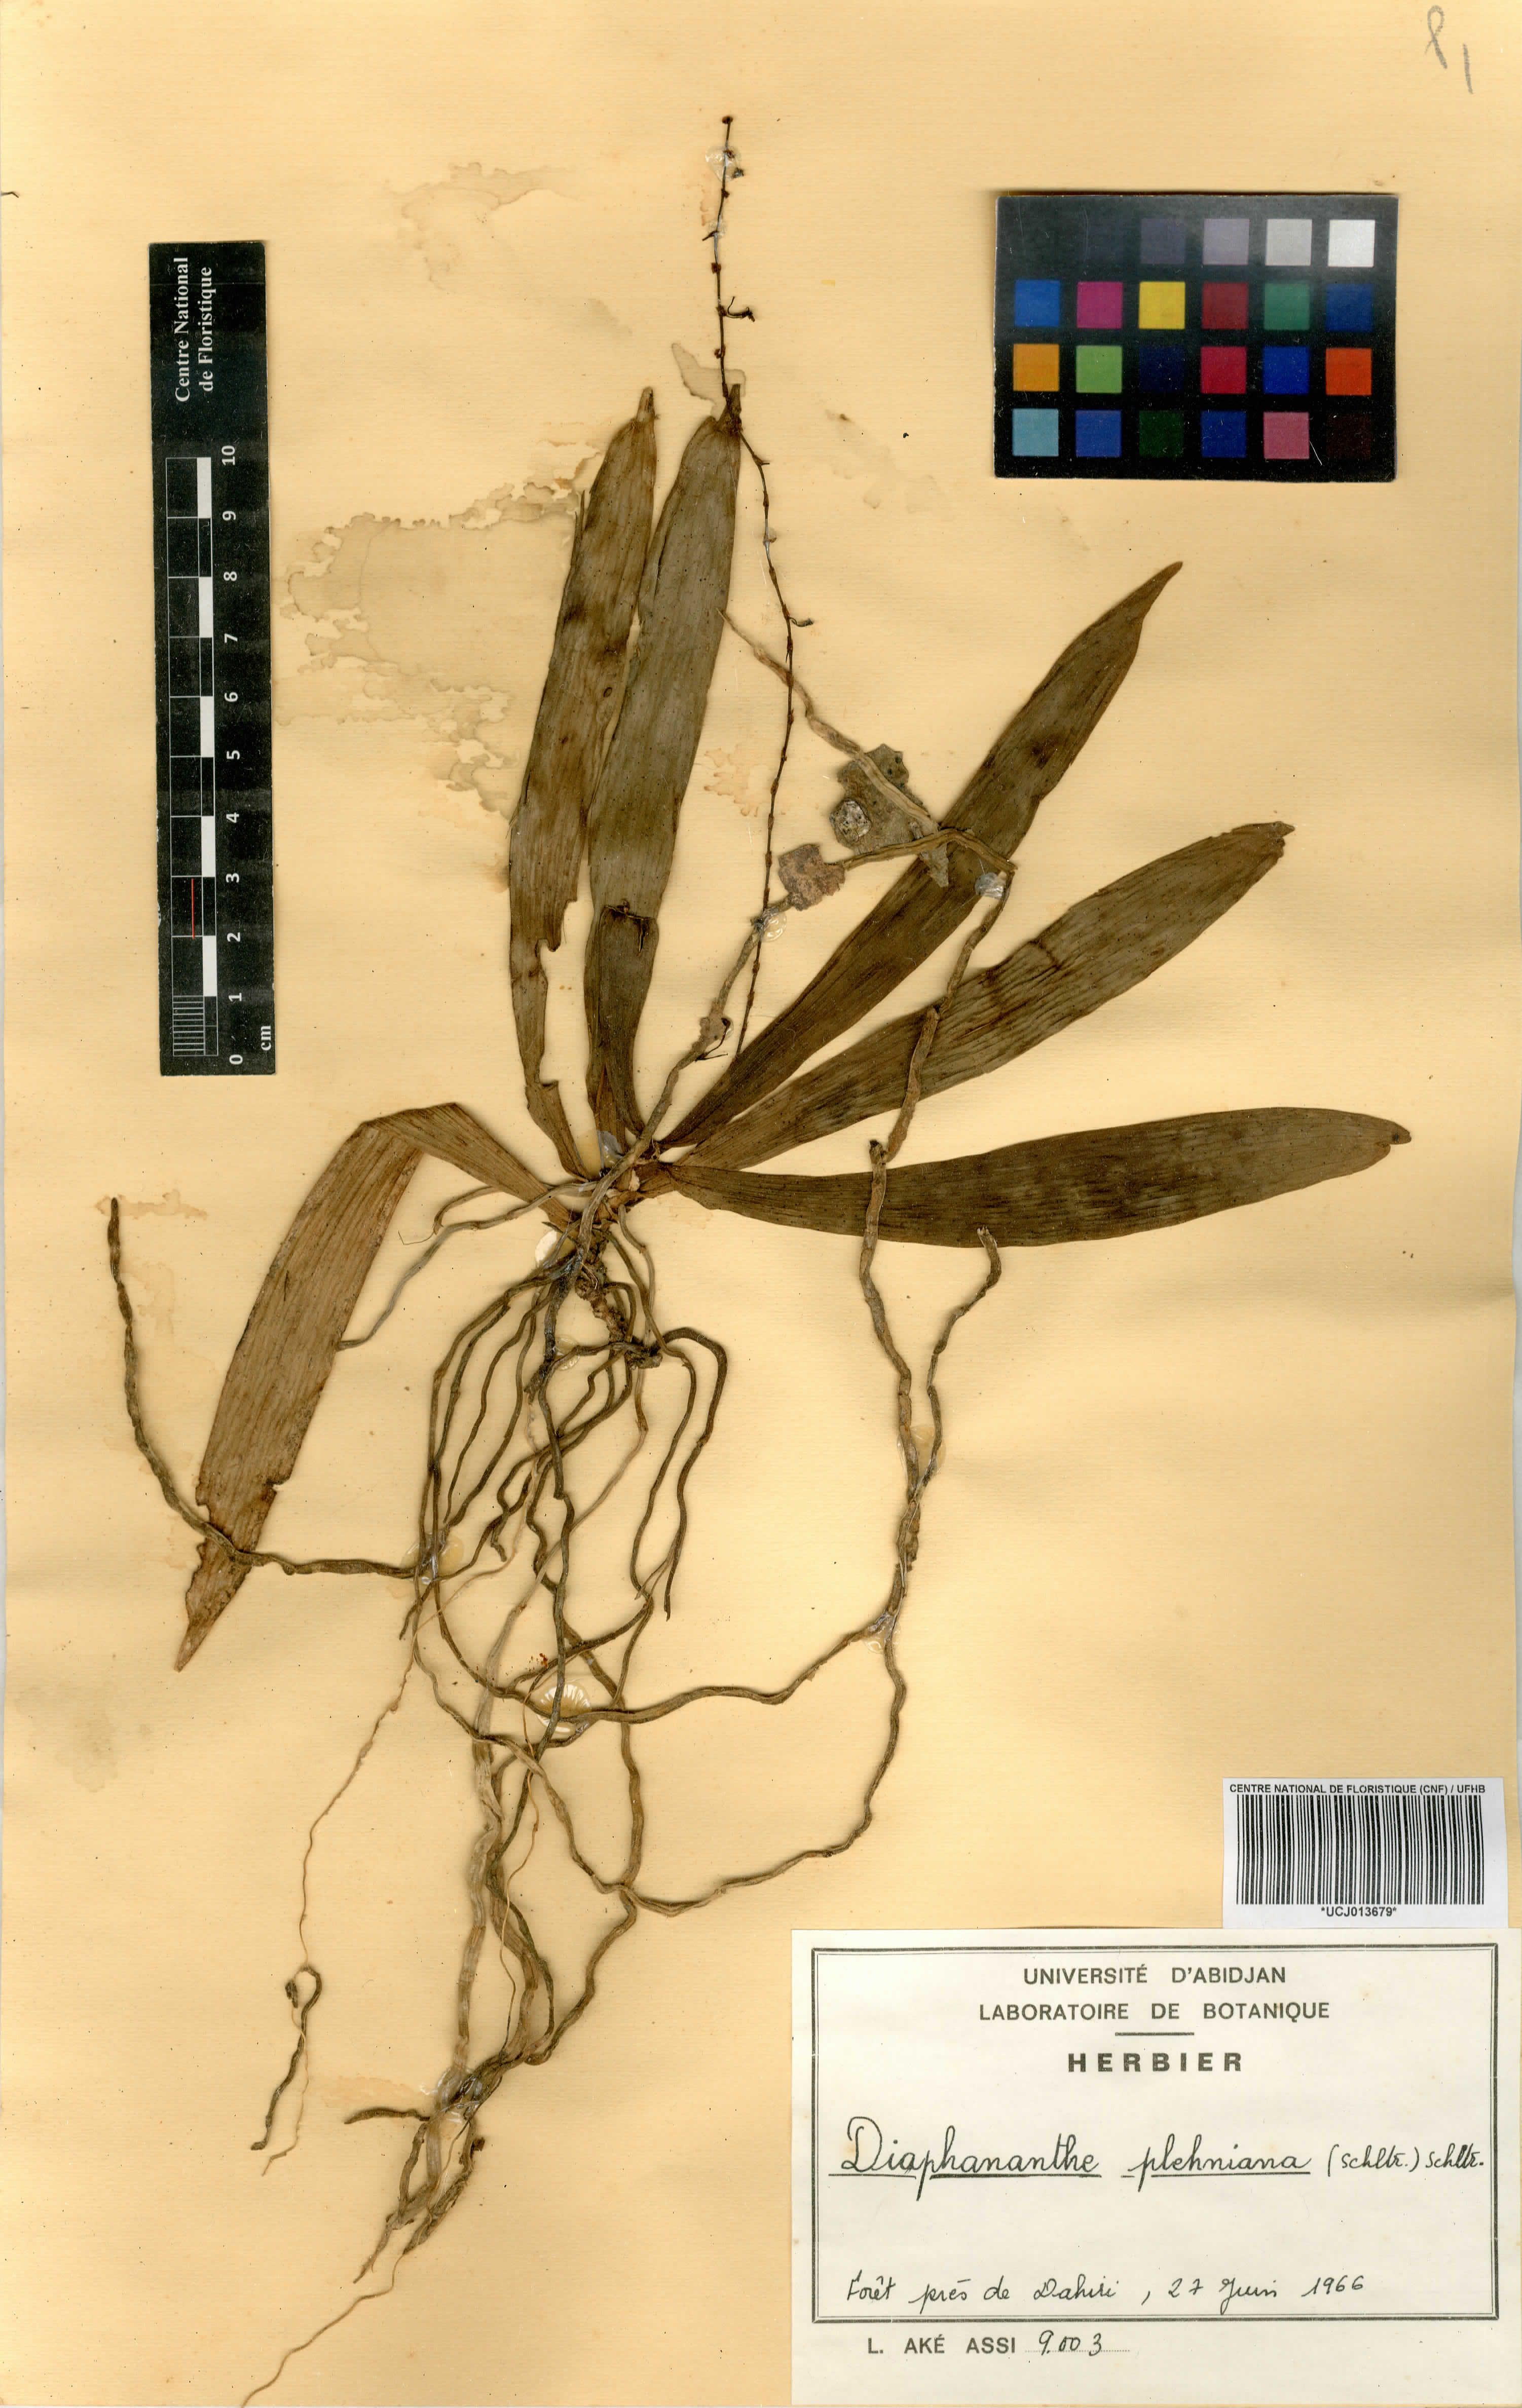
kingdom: Plantae
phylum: Tracheophyta
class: Liliopsida
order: Asparagales
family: Orchidaceae
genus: Diaphananthe
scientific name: Diaphananthe plehniana
